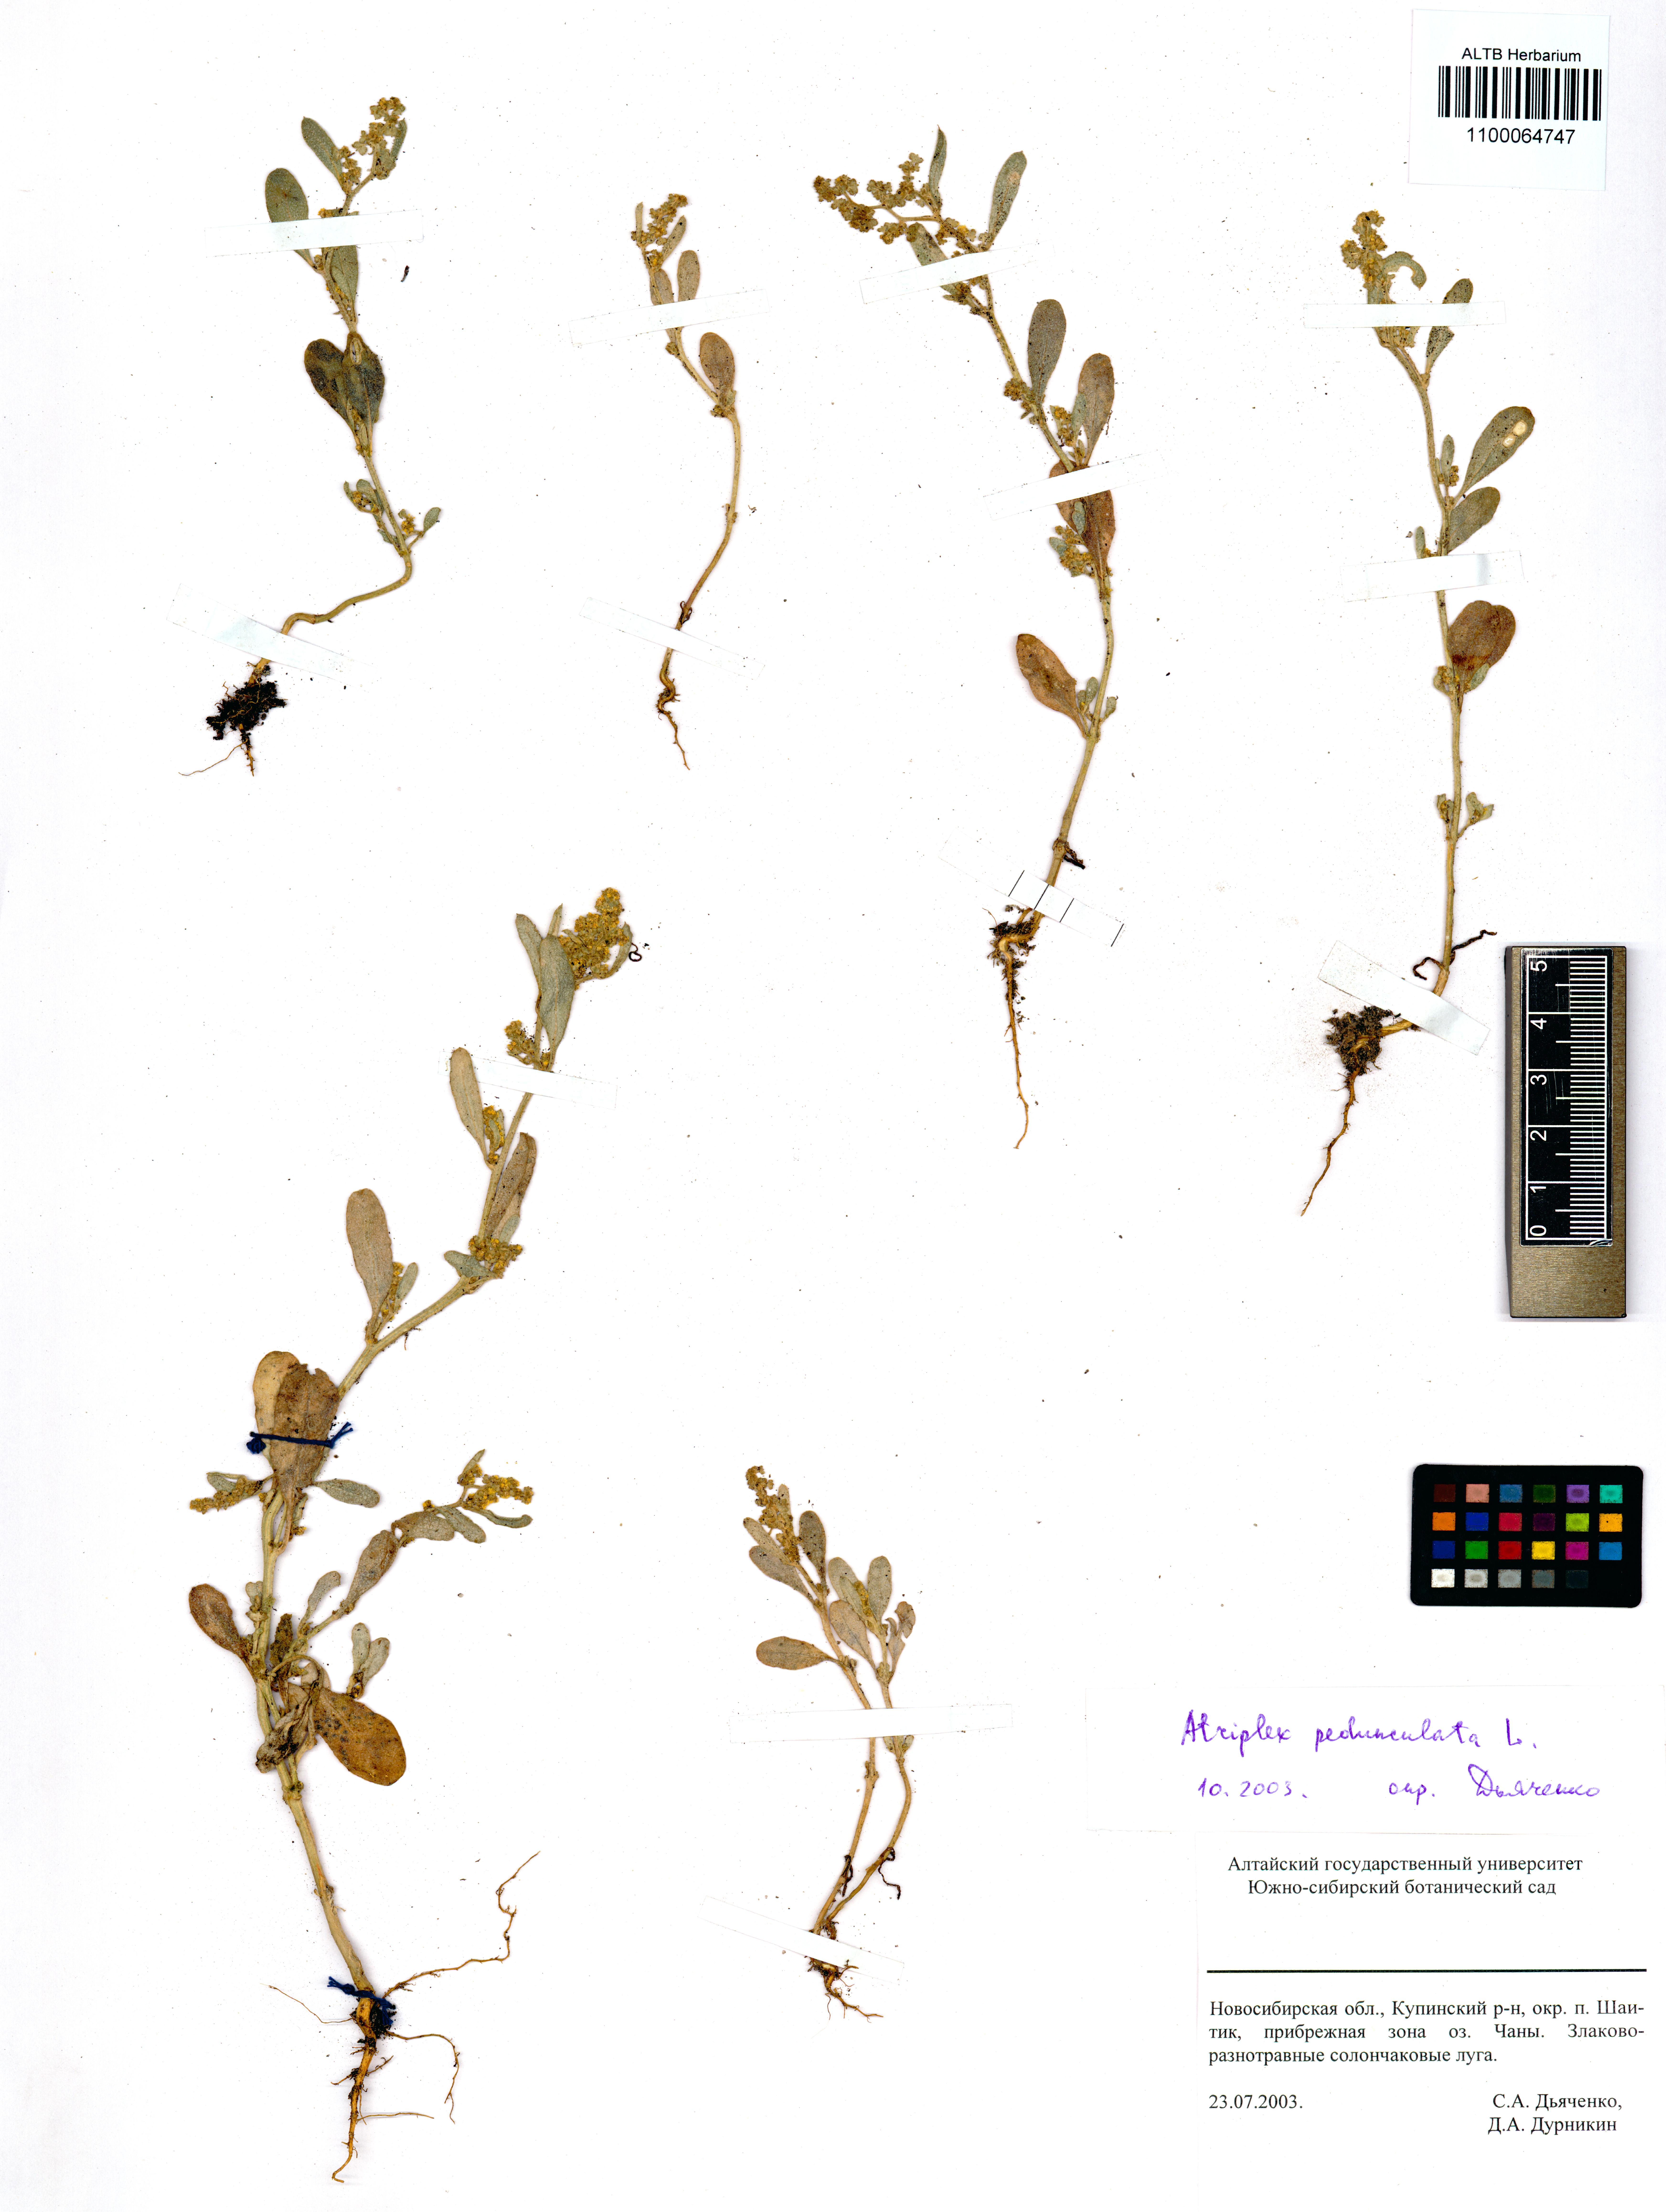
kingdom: Plantae
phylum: Tracheophyta
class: Magnoliopsida
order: Caryophyllales
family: Amaranthaceae
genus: Atriplex
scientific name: Atriplex patula
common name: Common orache
